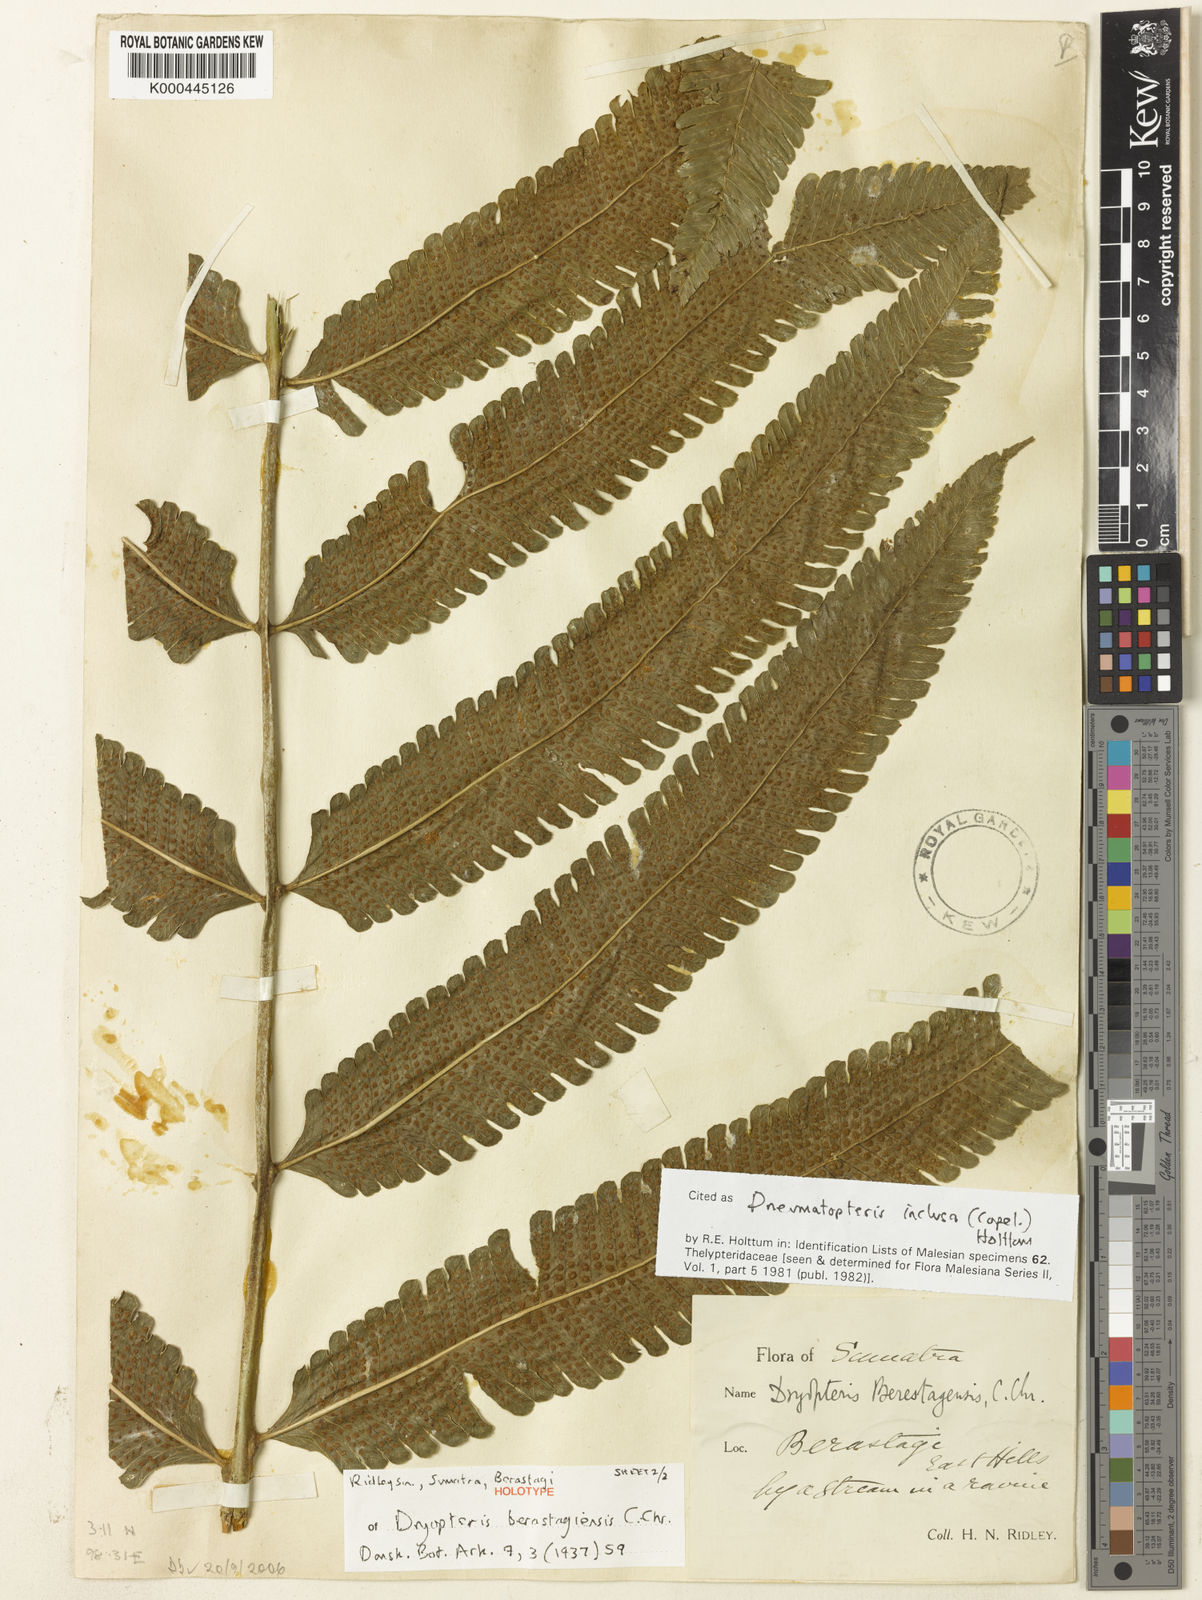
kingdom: Plantae
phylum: Tracheophyta
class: Polypodiopsida
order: Polypodiales
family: Thelypteridaceae
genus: Reholttumia
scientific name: Reholttumia inclusa
